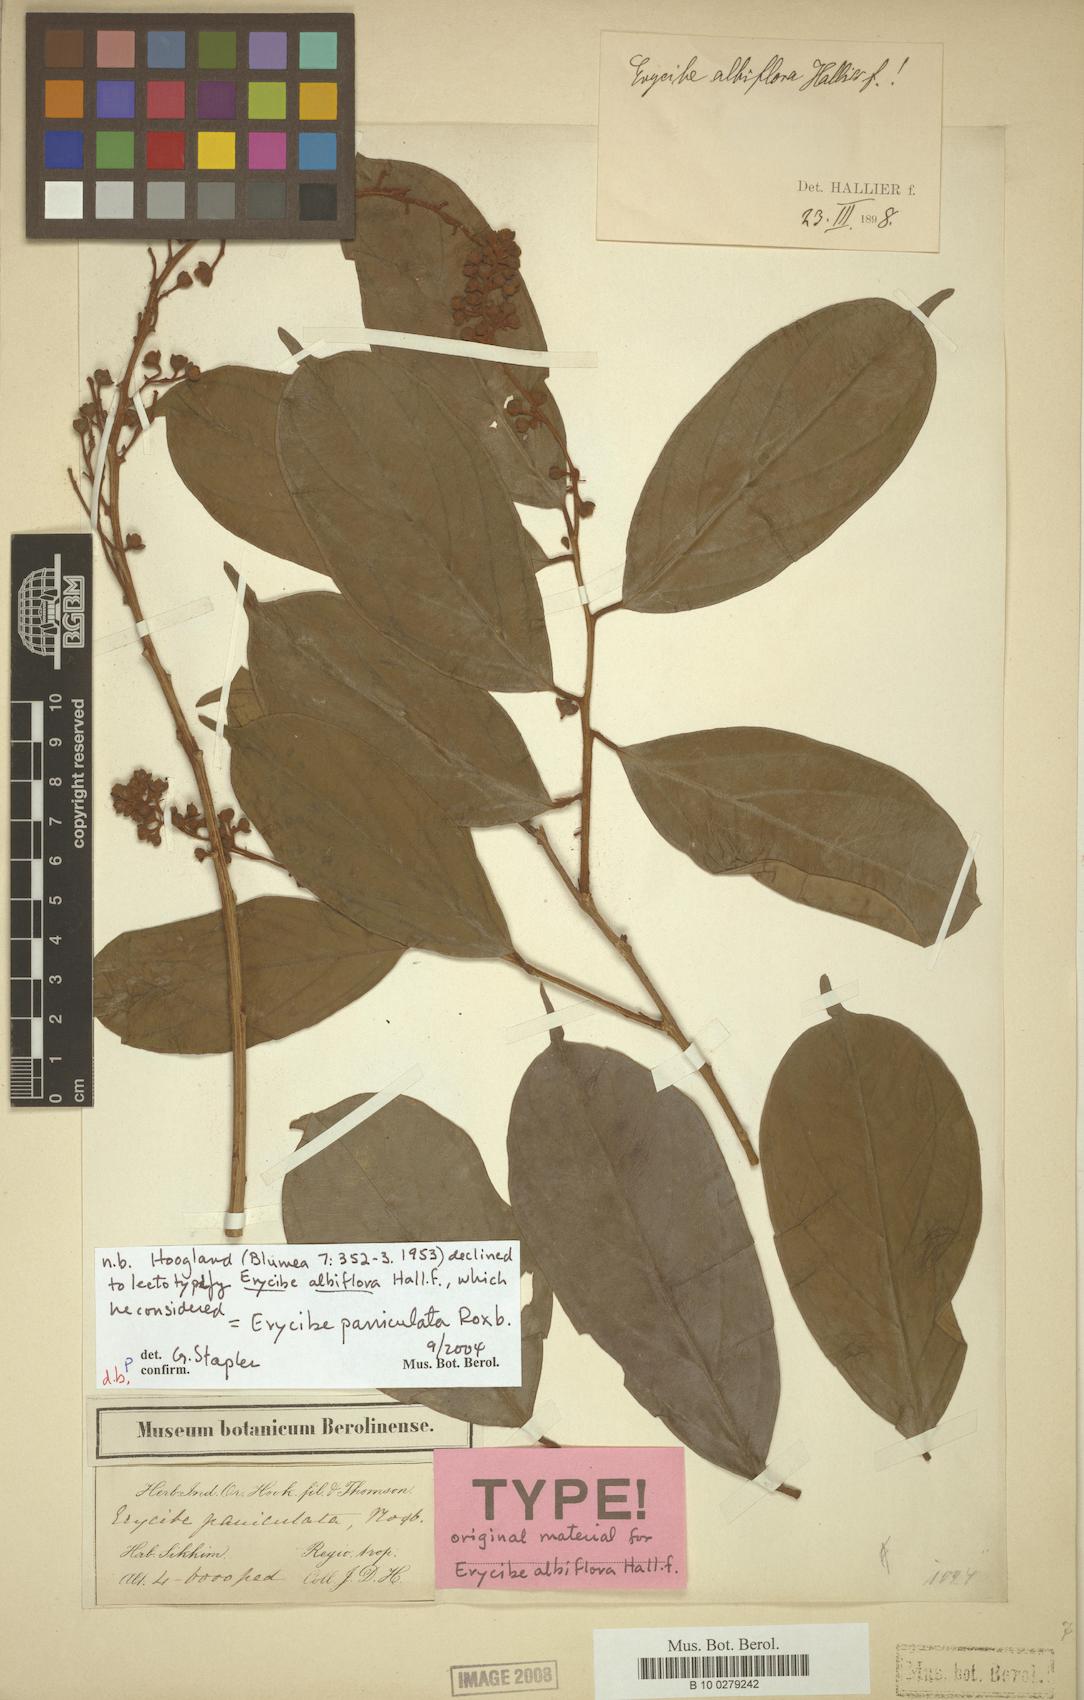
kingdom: Plantae
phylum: Tracheophyta
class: Magnoliopsida
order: Solanales
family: Convolvulaceae
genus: Erycibe
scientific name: Erycibe paniculata
